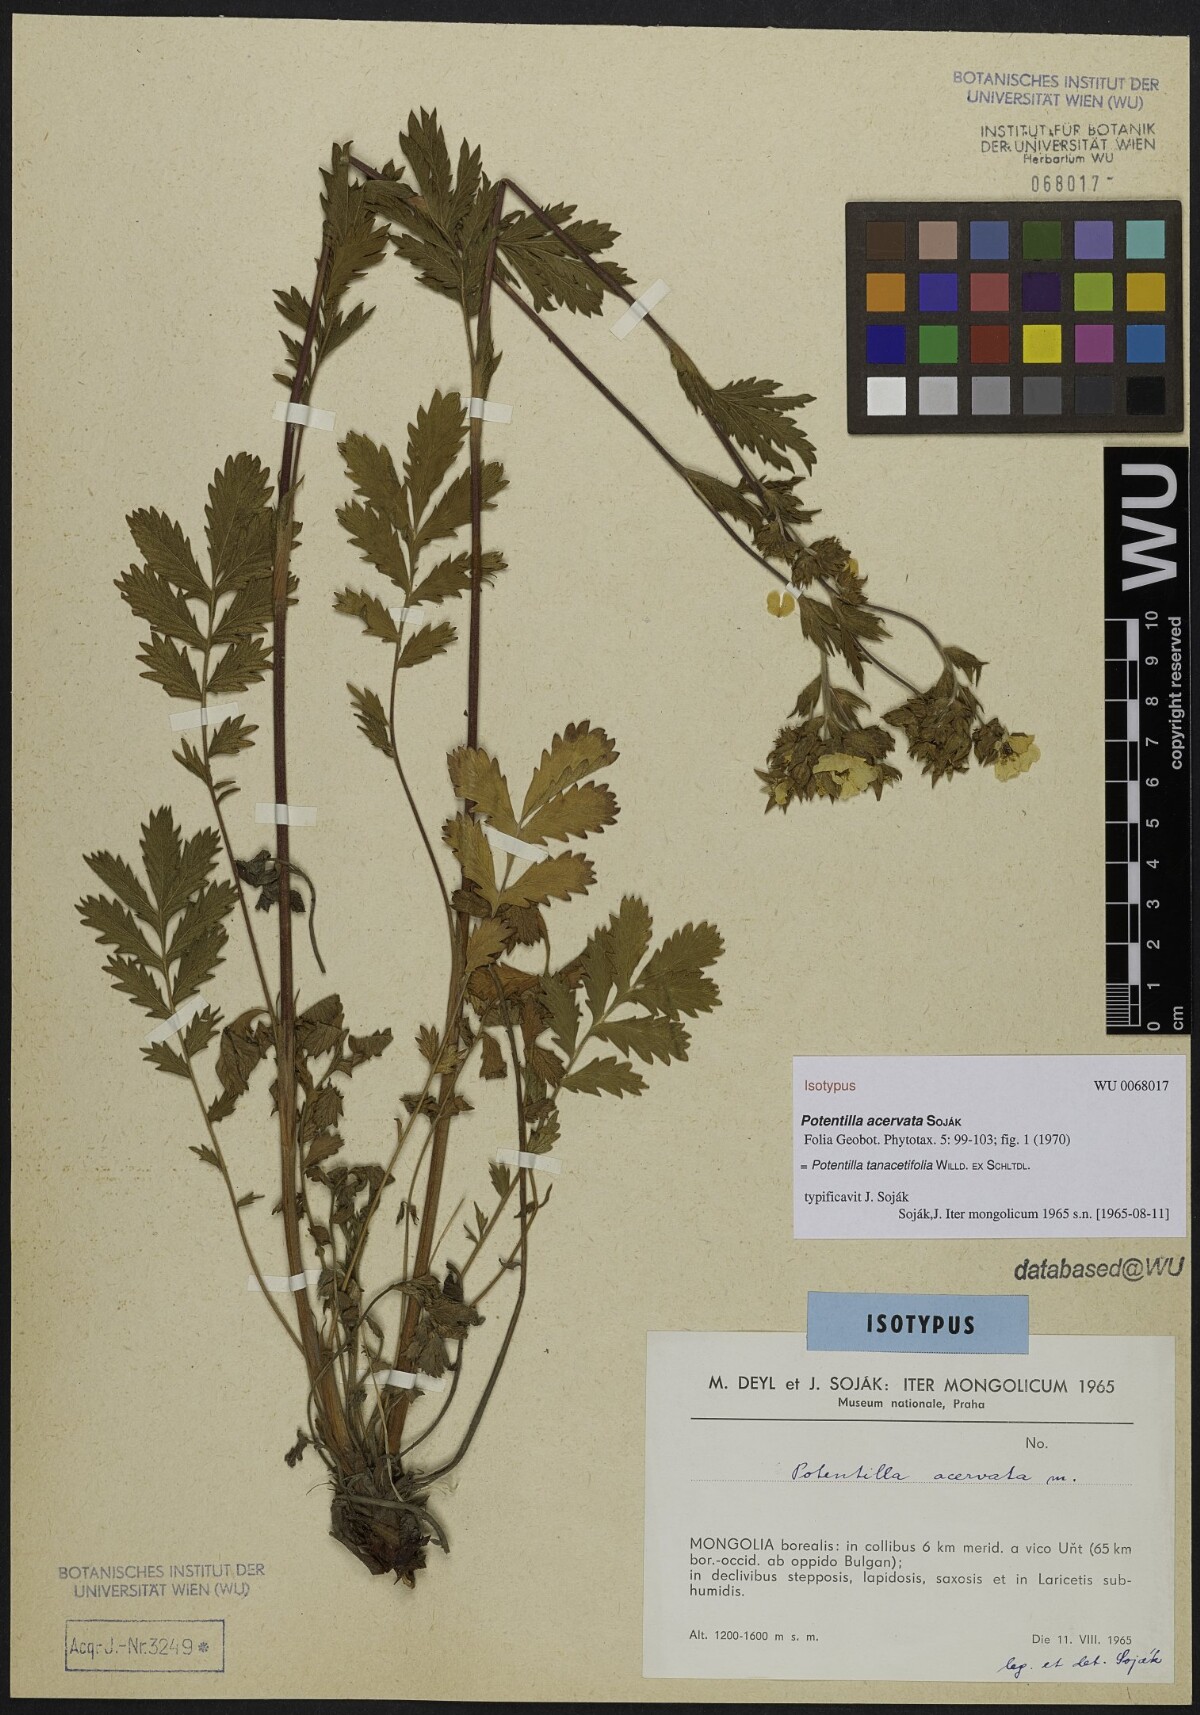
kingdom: Plantae
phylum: Tracheophyta
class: Magnoliopsida
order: Rosales
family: Rosaceae
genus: Potentilla
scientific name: Potentilla tanacetifolia
